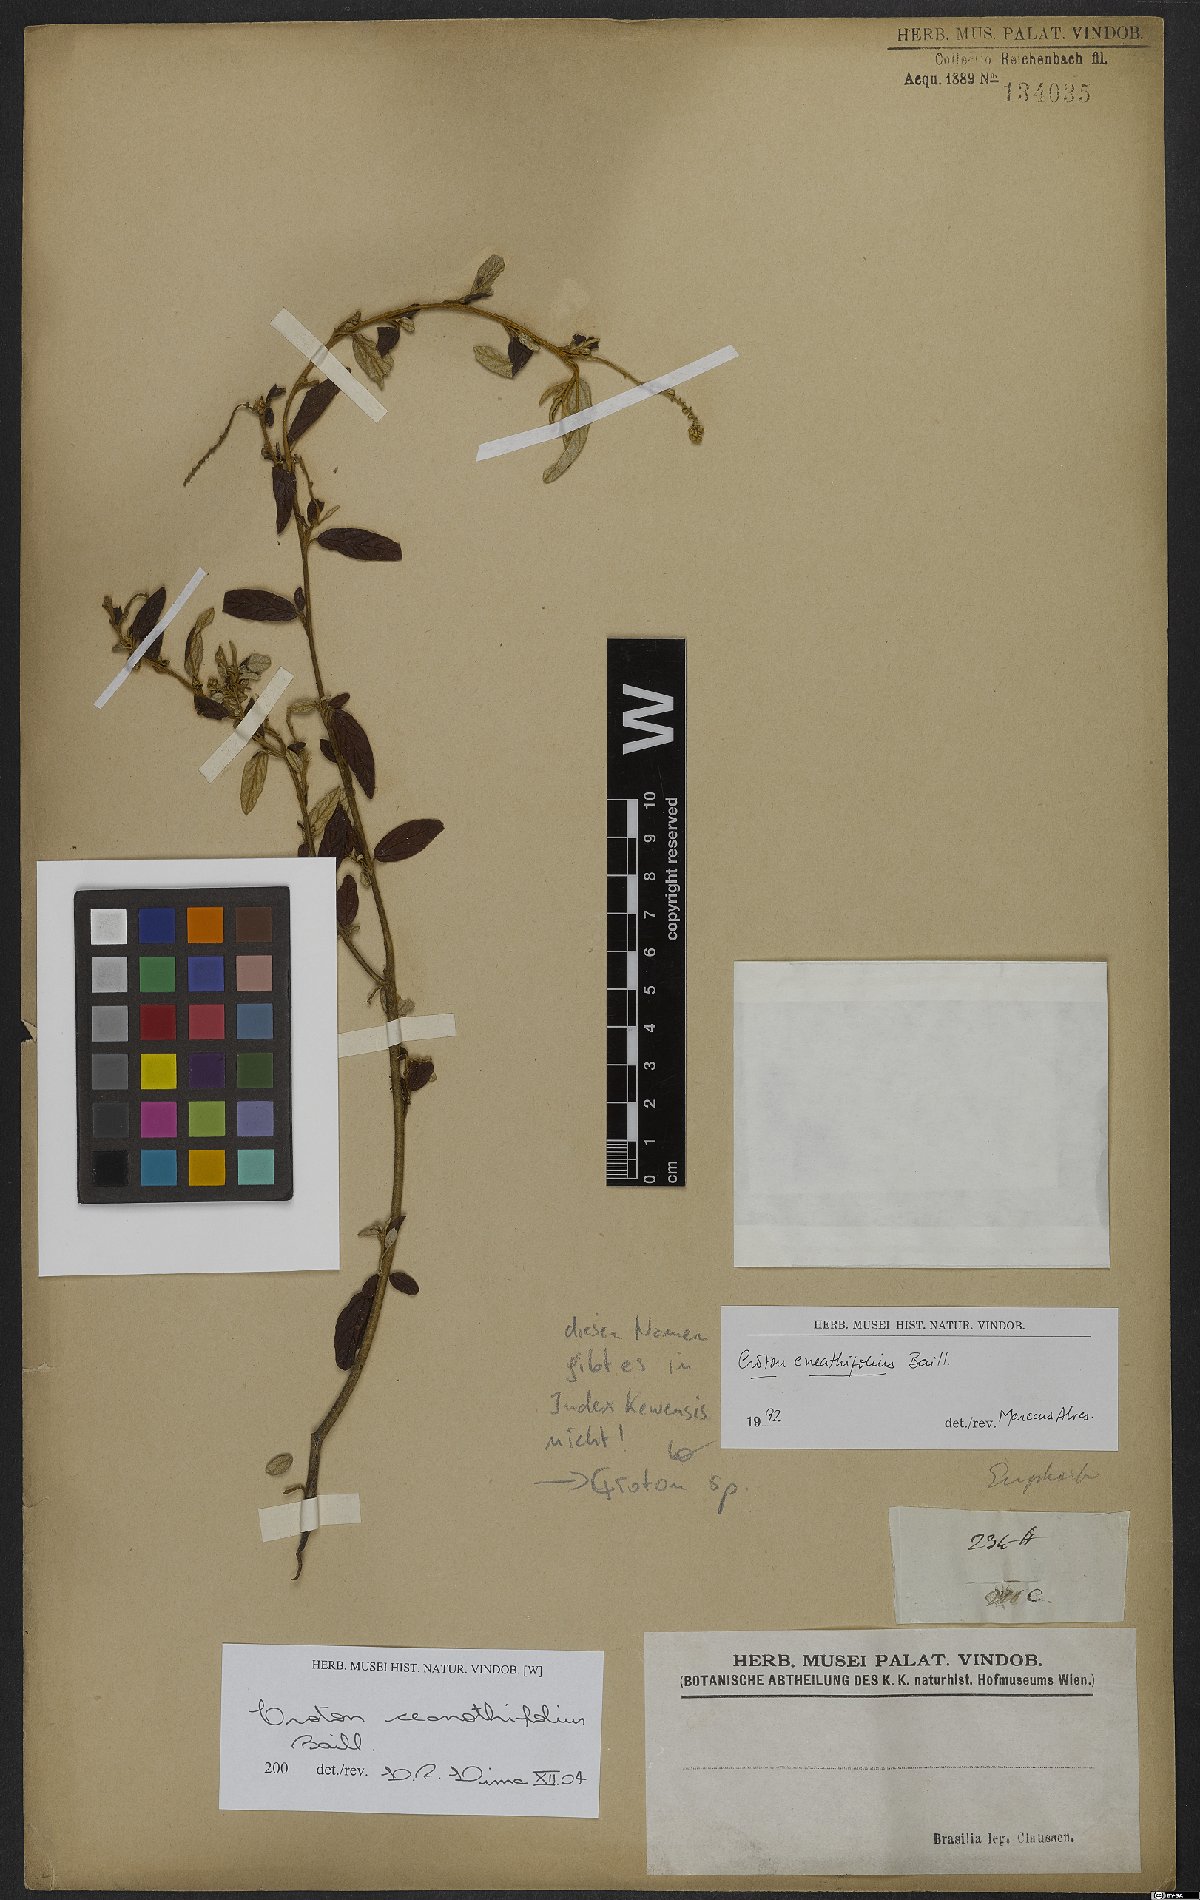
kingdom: Plantae
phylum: Tracheophyta
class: Magnoliopsida
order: Malpighiales
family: Euphorbiaceae
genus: Croton
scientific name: Croton ceanothifolius
